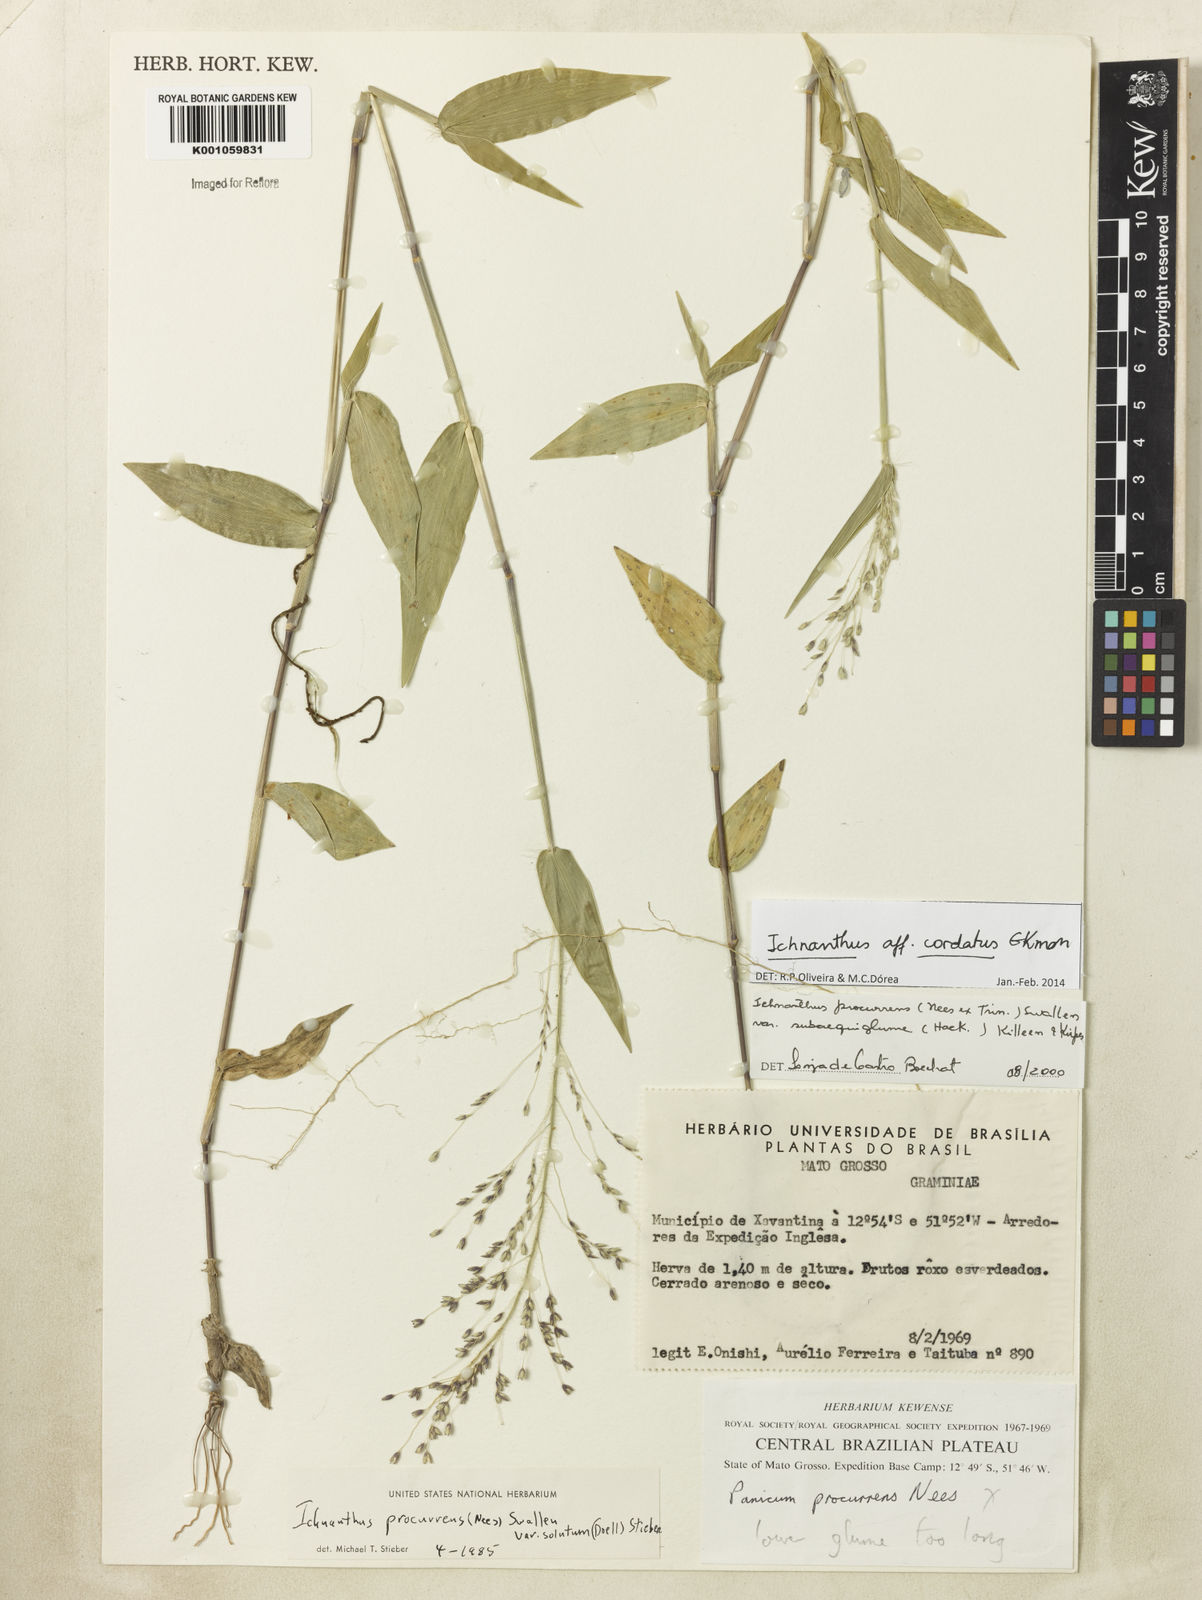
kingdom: Plantae
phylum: Tracheophyta
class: Liliopsida
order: Poales
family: Poaceae
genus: Oedochloa
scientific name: Oedochloa mayarensis
